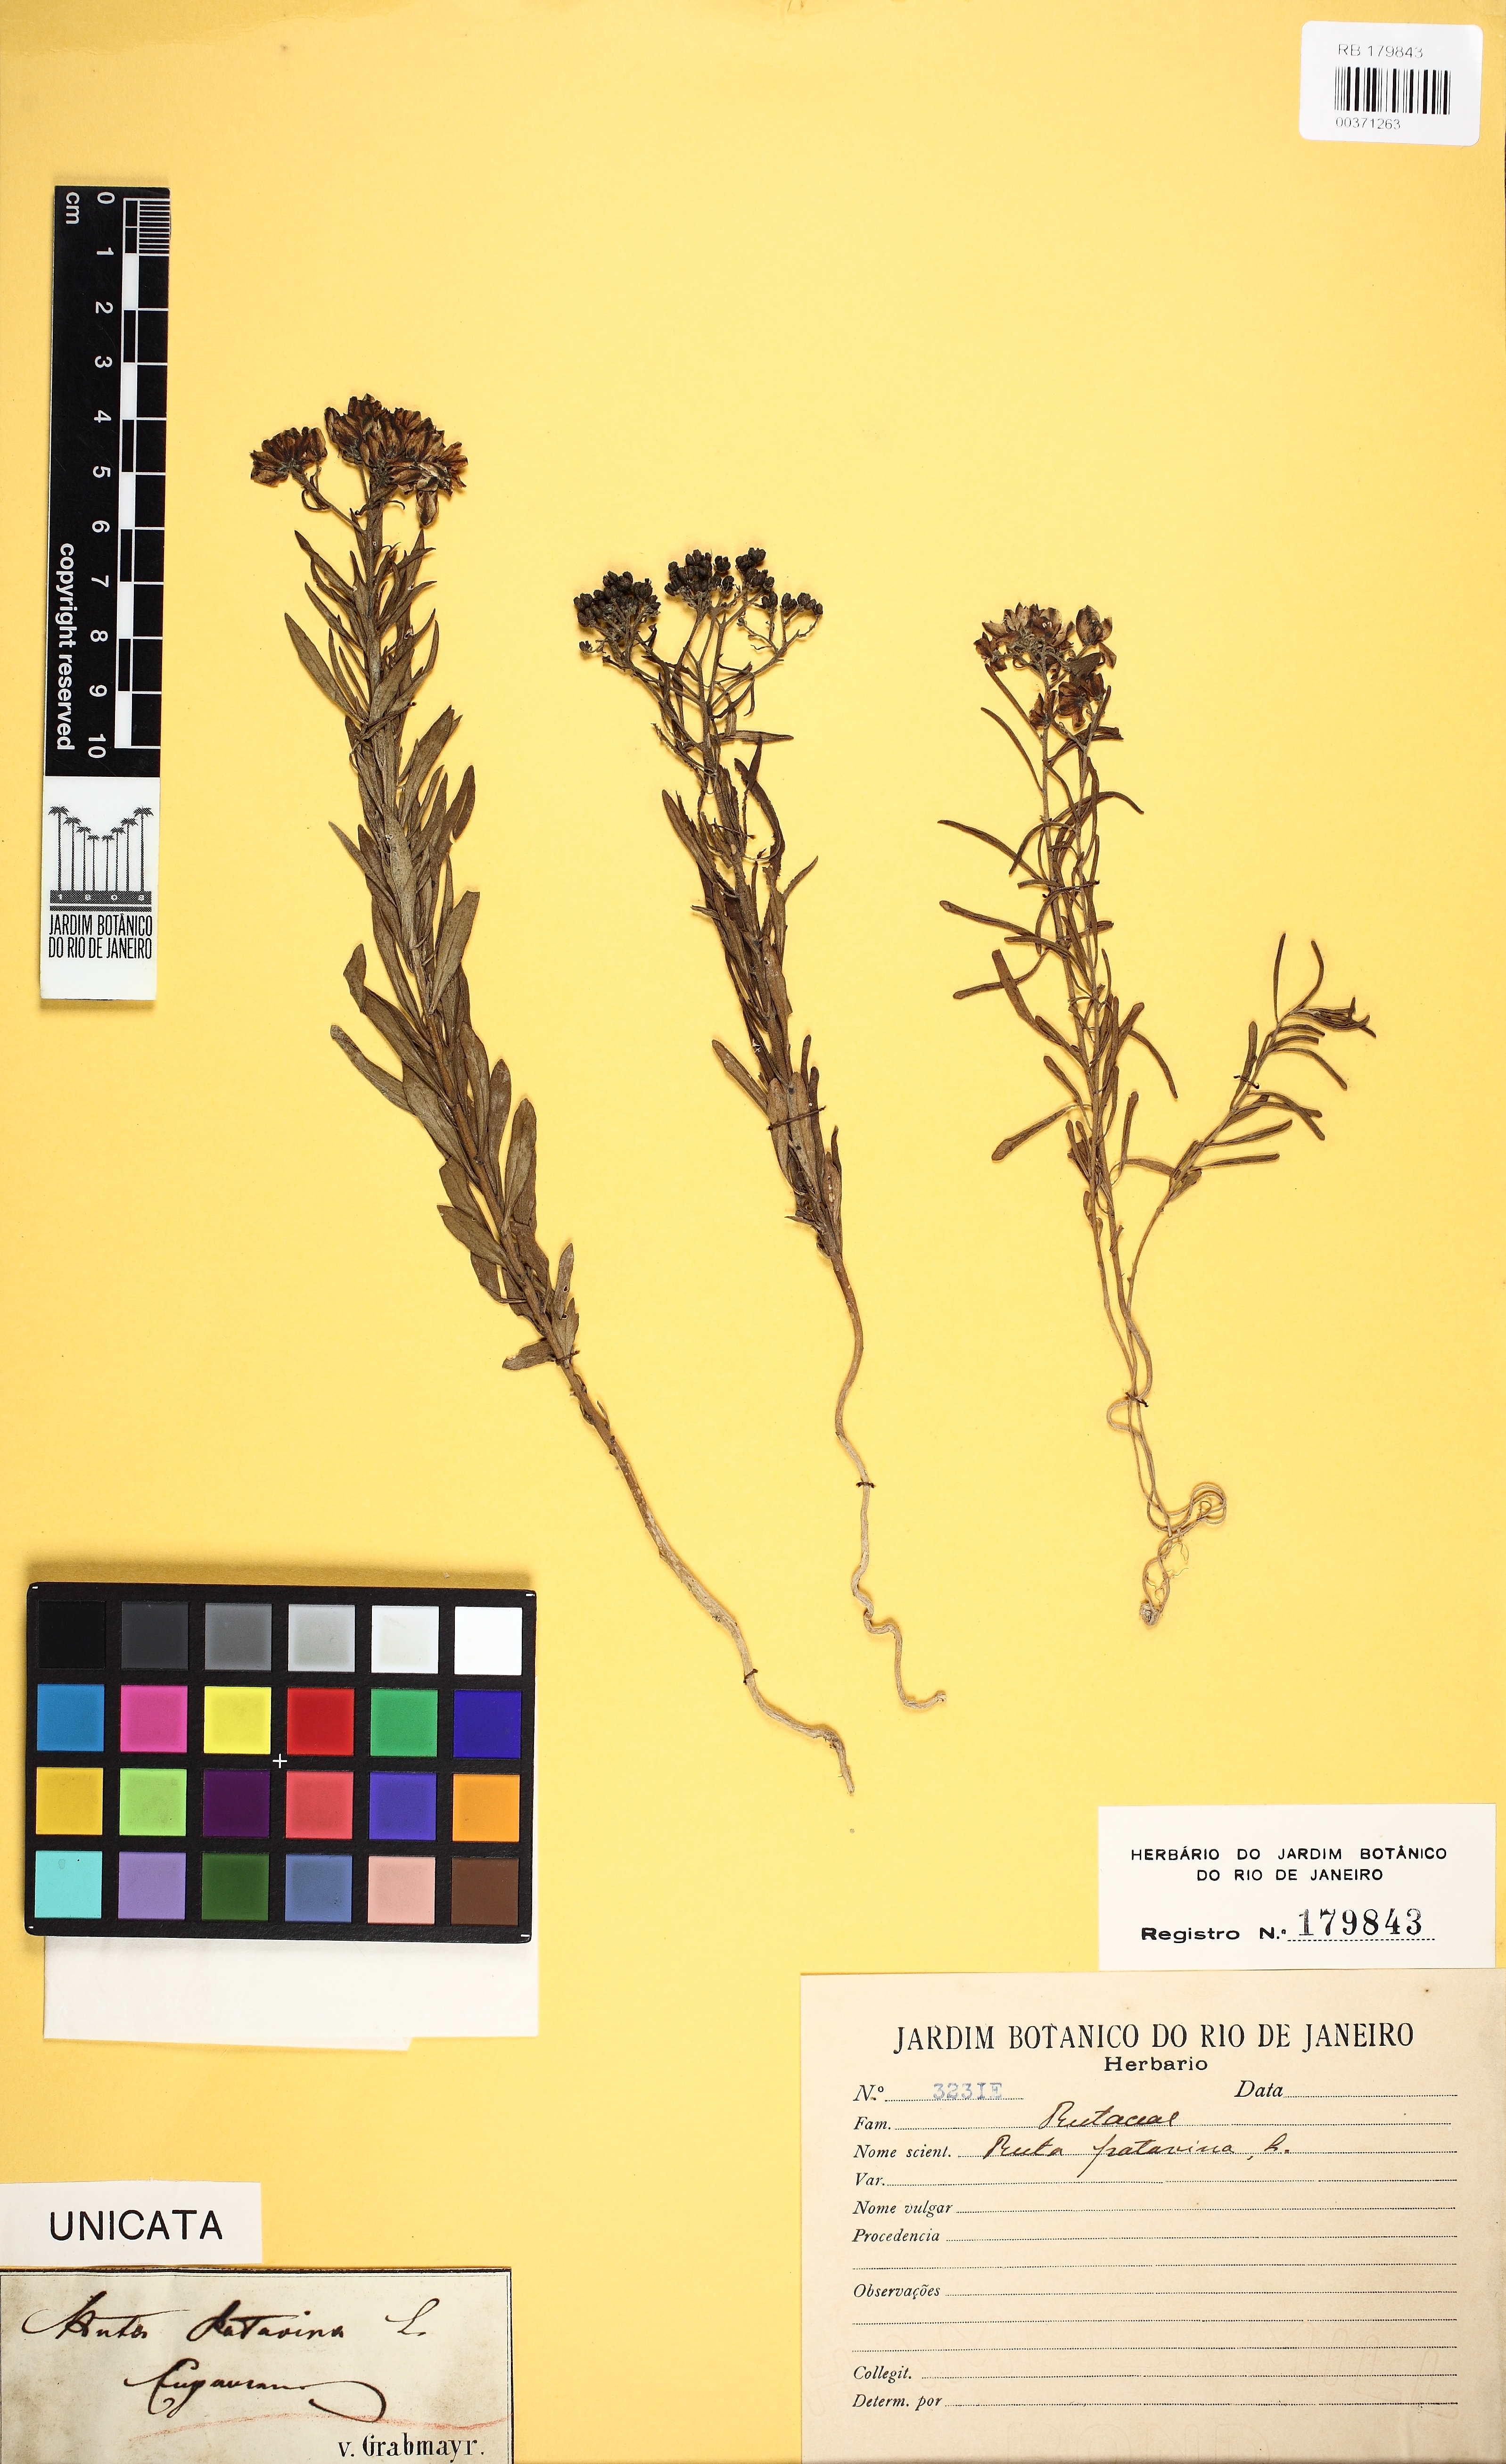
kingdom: Plantae
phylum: Tracheophyta
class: Magnoliopsida
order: Sapindales
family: Rutaceae
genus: Haplophyllum
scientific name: Haplophyllum patavinum
